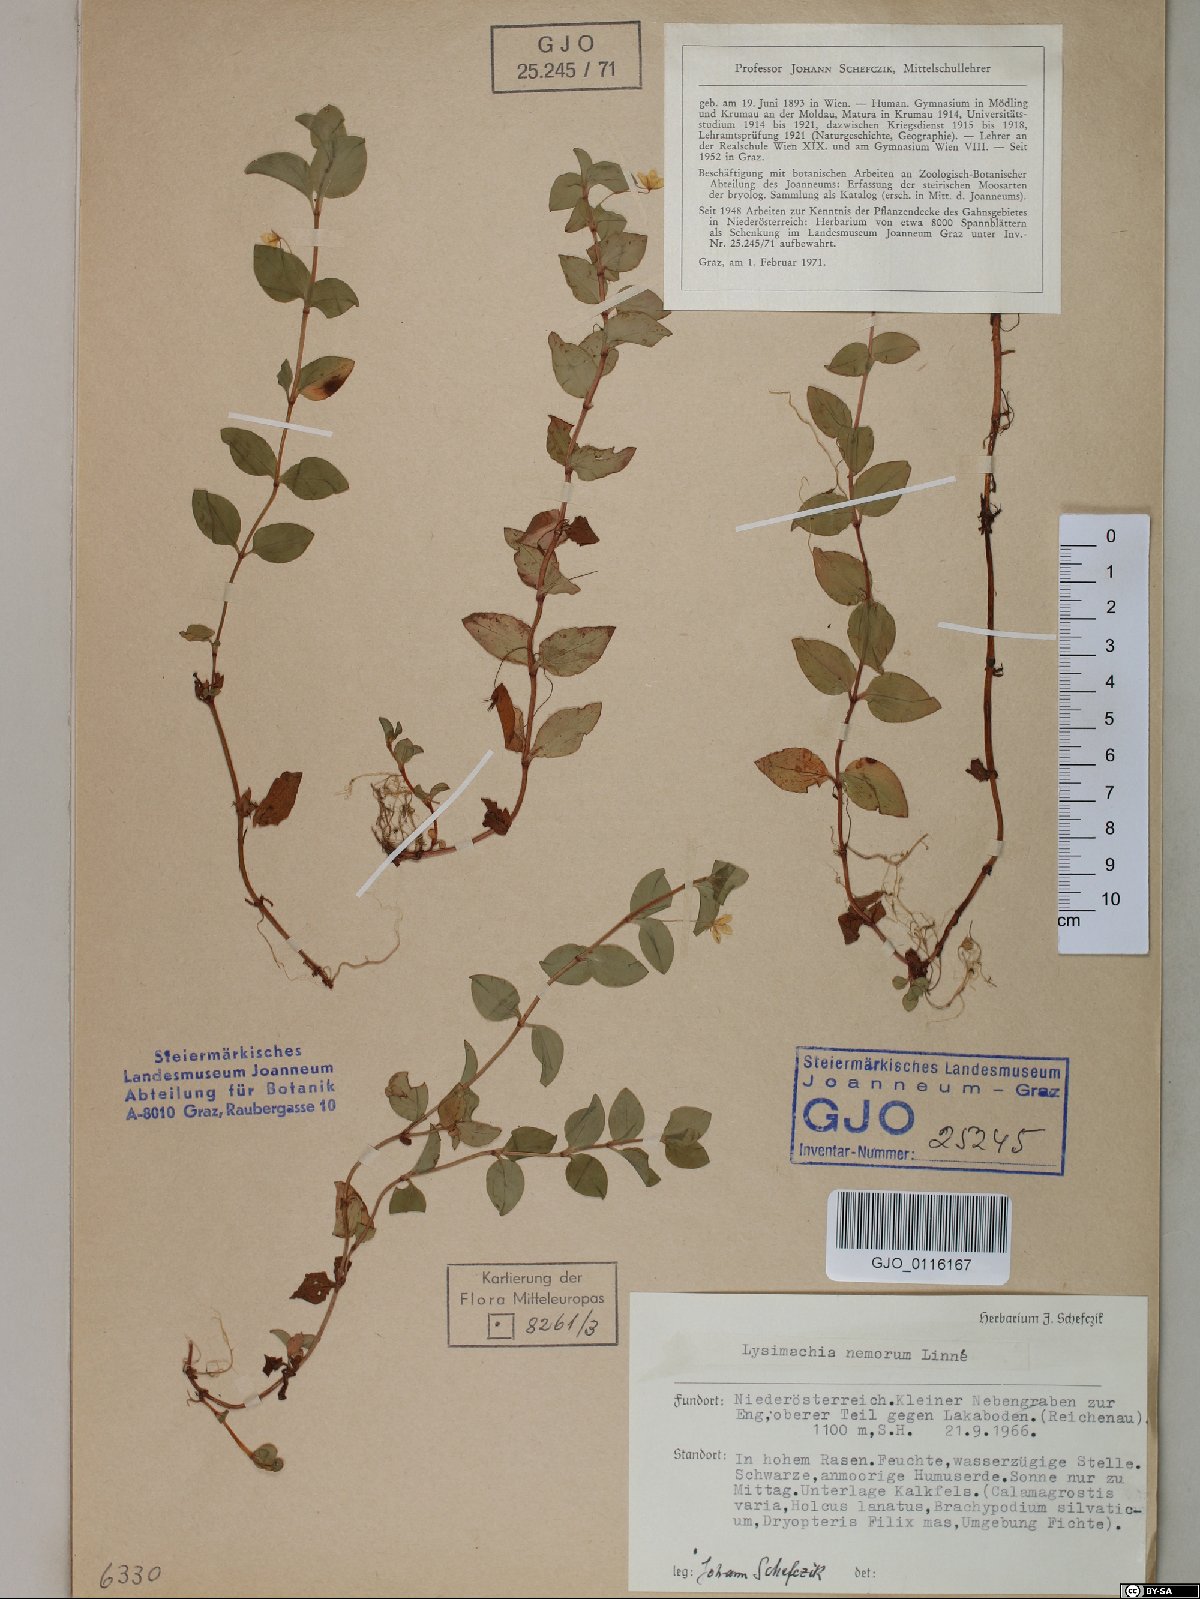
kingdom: Plantae
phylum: Tracheophyta
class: Magnoliopsida
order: Ericales
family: Primulaceae
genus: Lysimachia
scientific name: Lysimachia nemorum
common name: Yellow pimpernel
